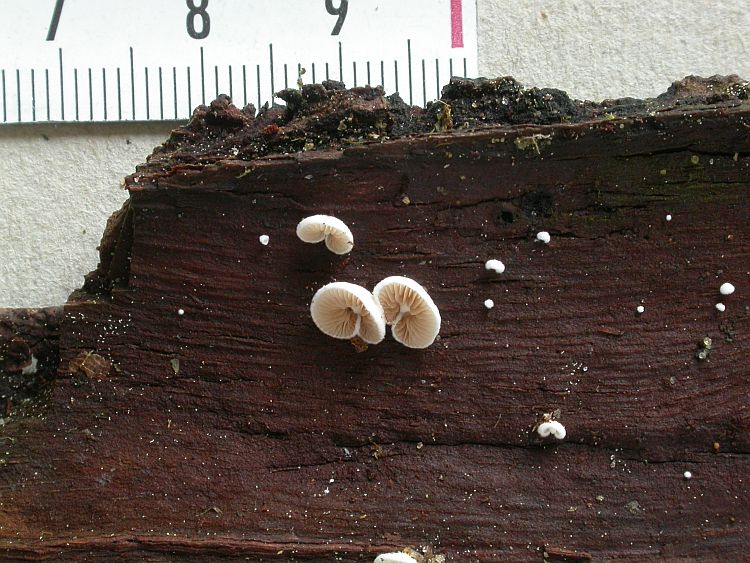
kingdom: Fungi
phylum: Basidiomycota
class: Agaricomycetes
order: Agaricales
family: Crepidotaceae
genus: Crepidotus
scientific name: Crepidotus variabilis
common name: forskelligformet muslingesvamp
